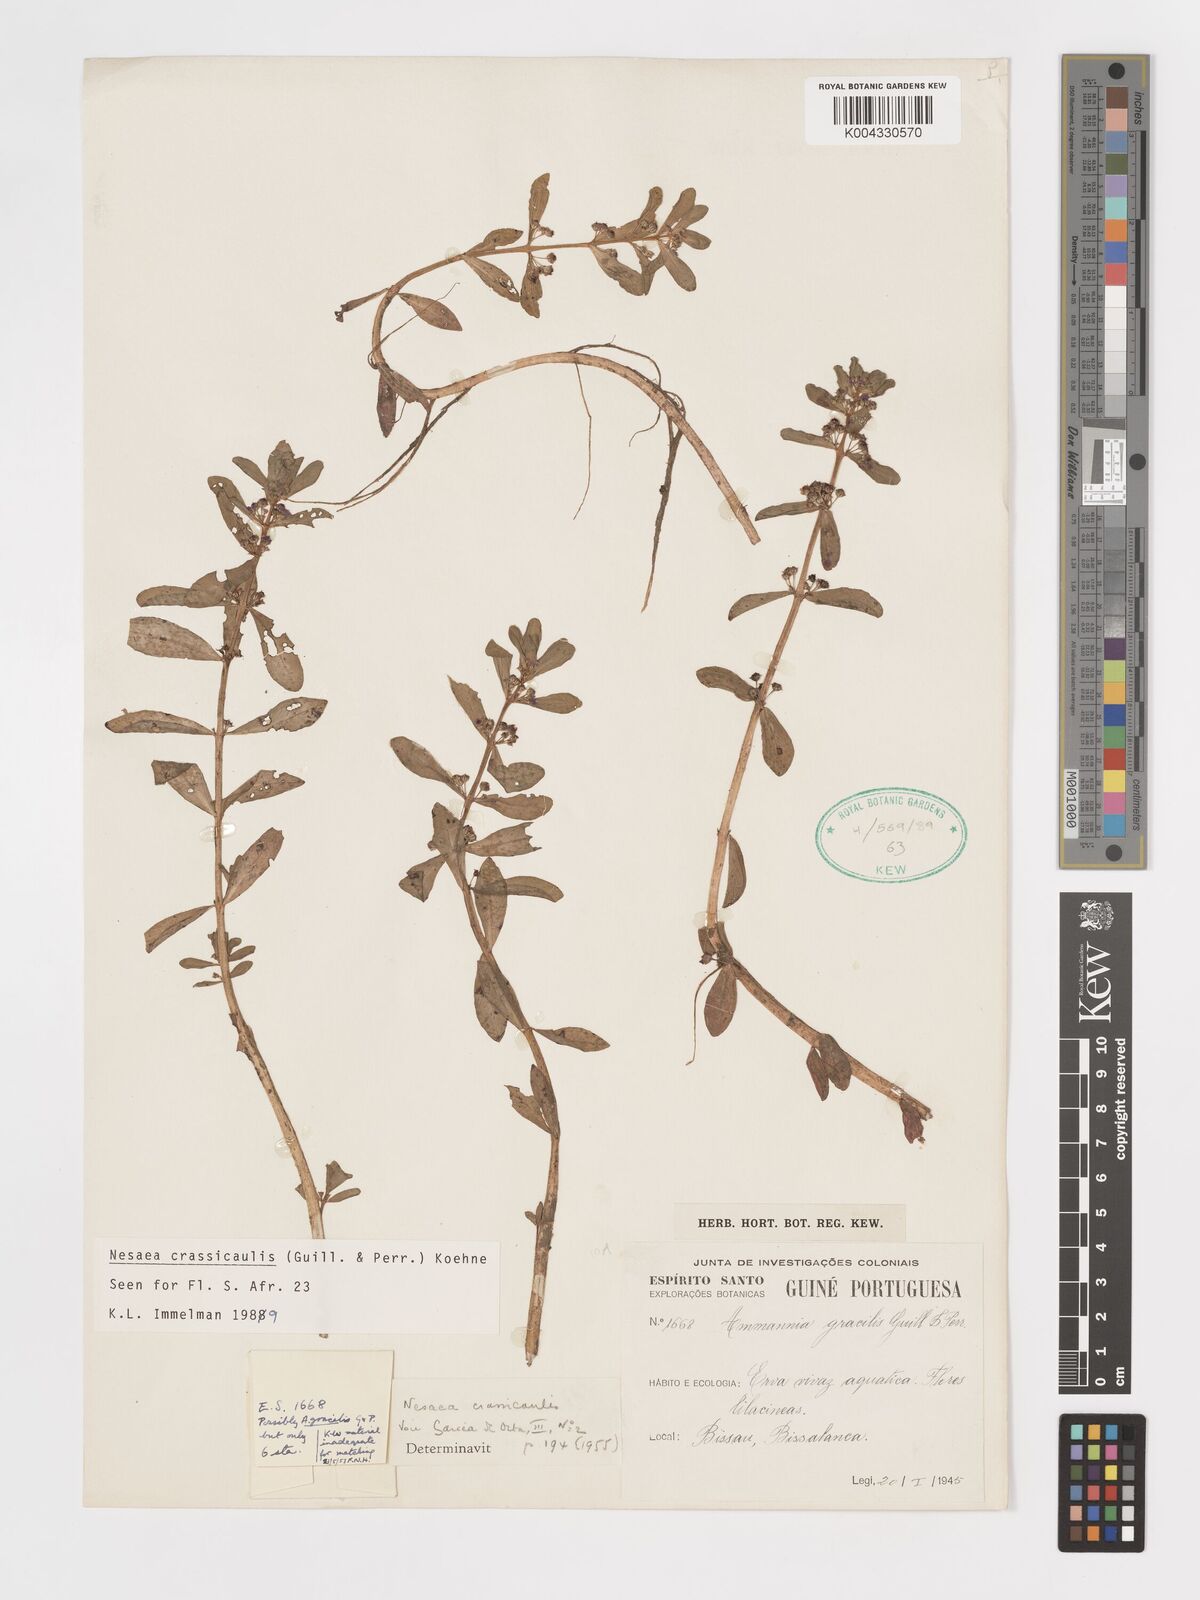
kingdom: Plantae
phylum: Tracheophyta
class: Magnoliopsida
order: Myrtales
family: Lythraceae
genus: Ammannia
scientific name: Ammannia crassicaulis
